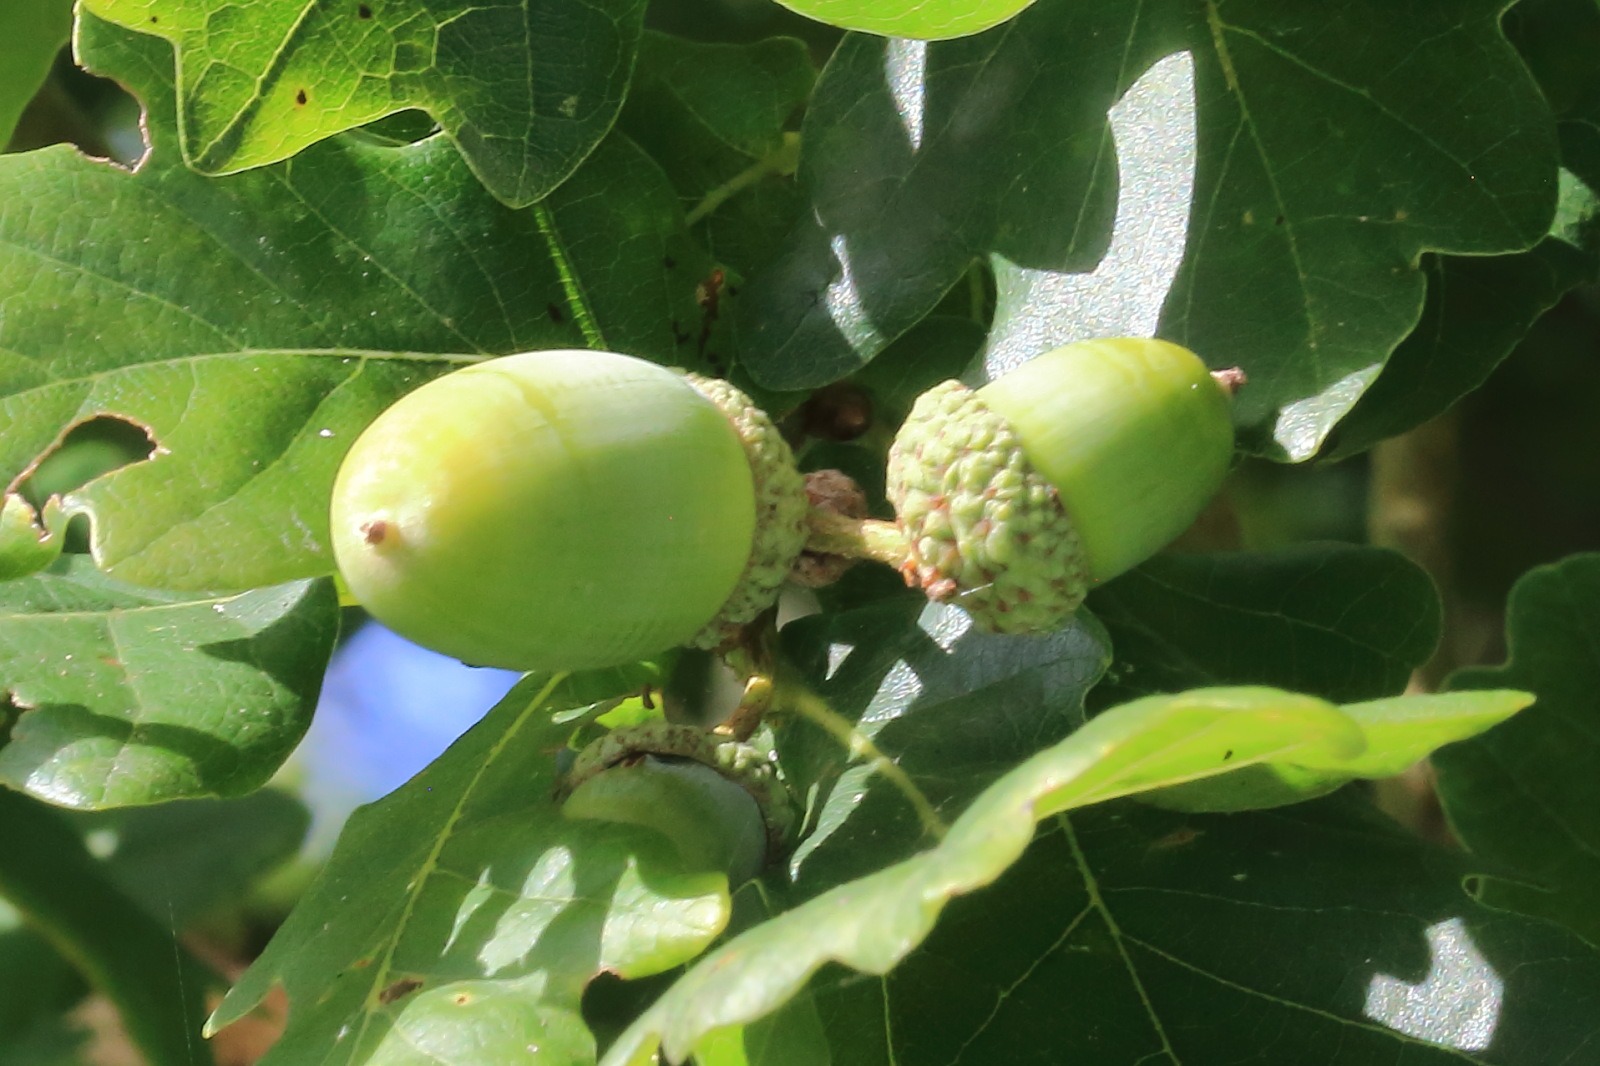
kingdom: Plantae
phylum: Tracheophyta
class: Magnoliopsida
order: Fagales
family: Fagaceae
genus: Quercus
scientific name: Quercus robur
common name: Stilk-eg/almindelig eg
